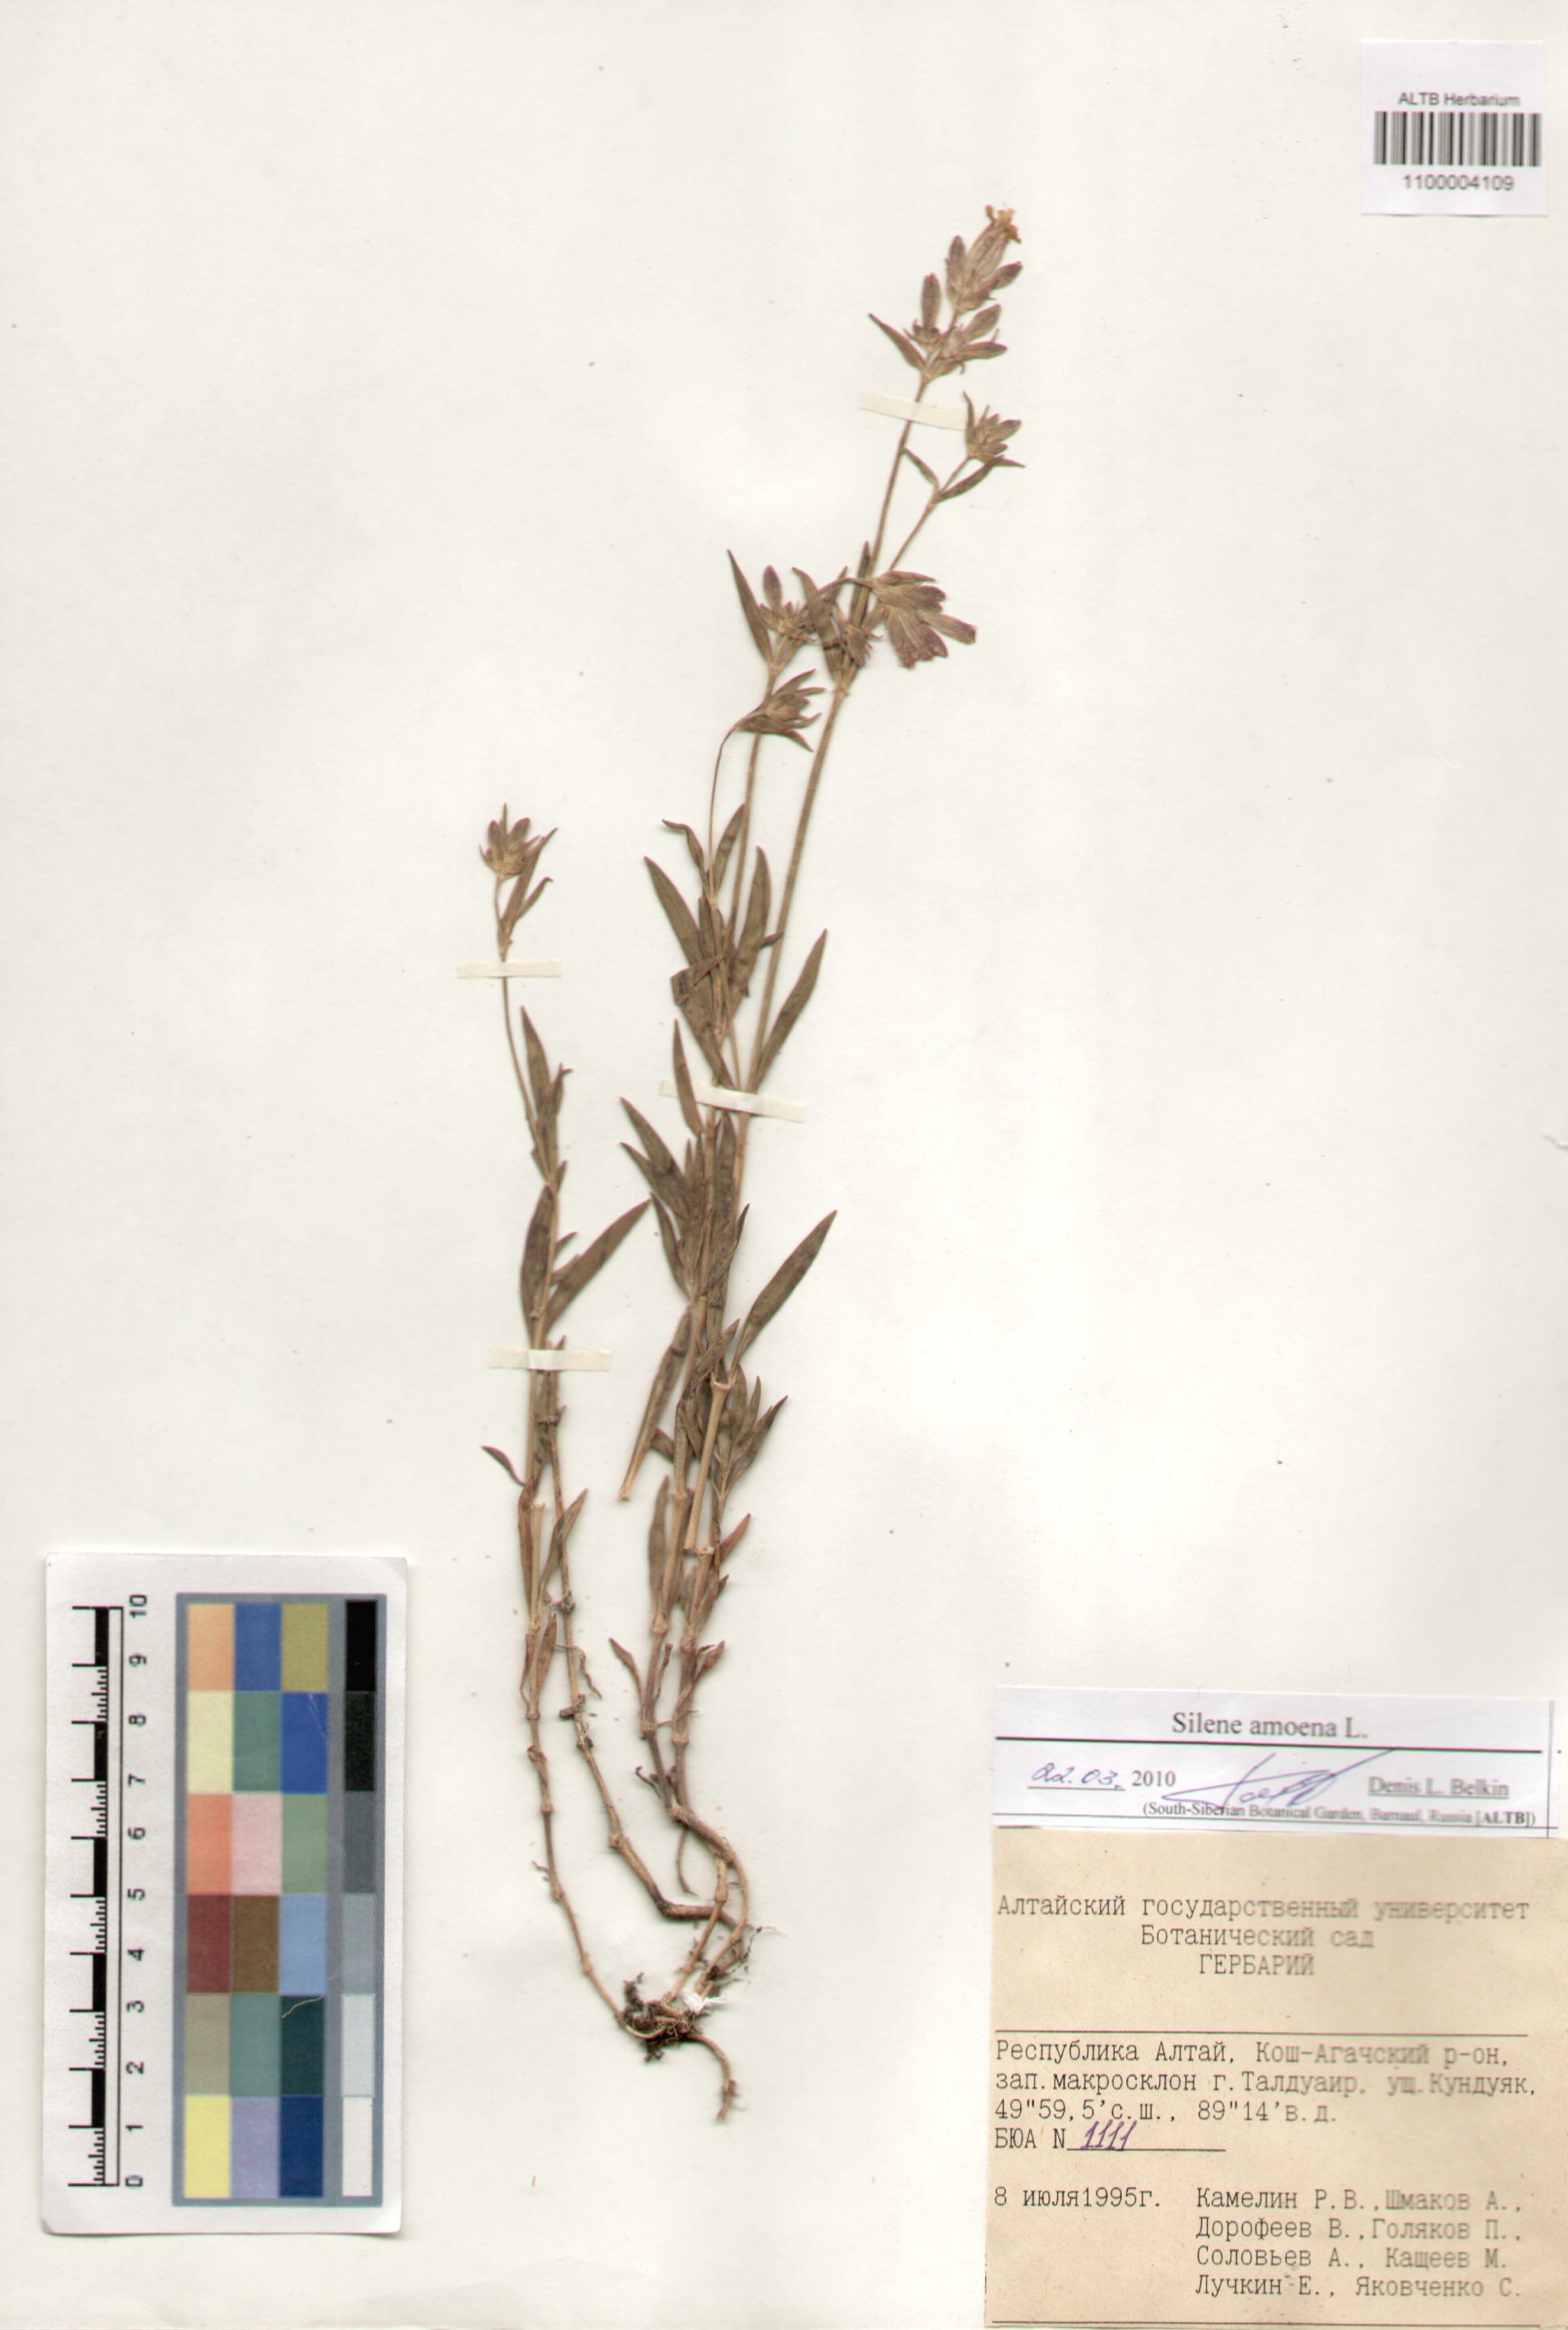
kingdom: Plantae
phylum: Tracheophyta
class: Magnoliopsida
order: Caryophyllales
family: Caryophyllaceae
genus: Silene
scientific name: Silene amoena
